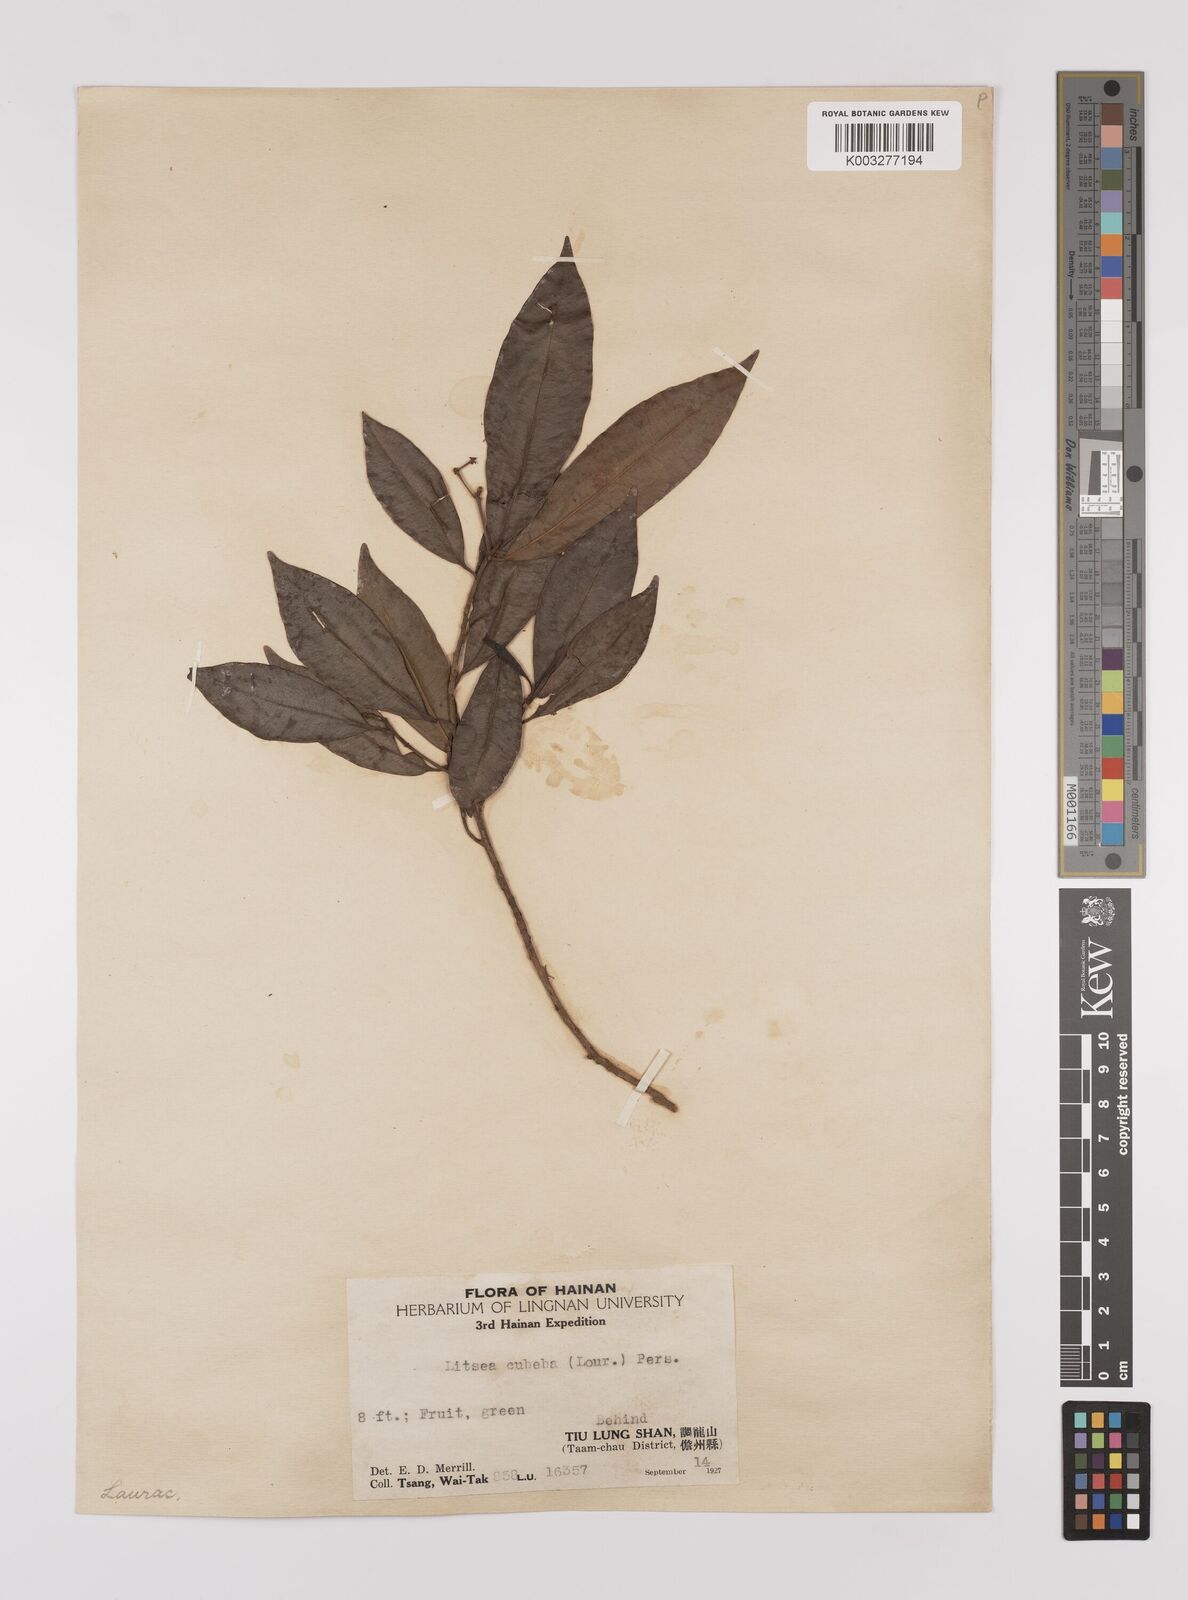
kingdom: Plantae
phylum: Tracheophyta
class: Magnoliopsida
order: Laurales
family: Lauraceae
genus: Litsea
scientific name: Litsea cubeba
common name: Mountain-pepper
